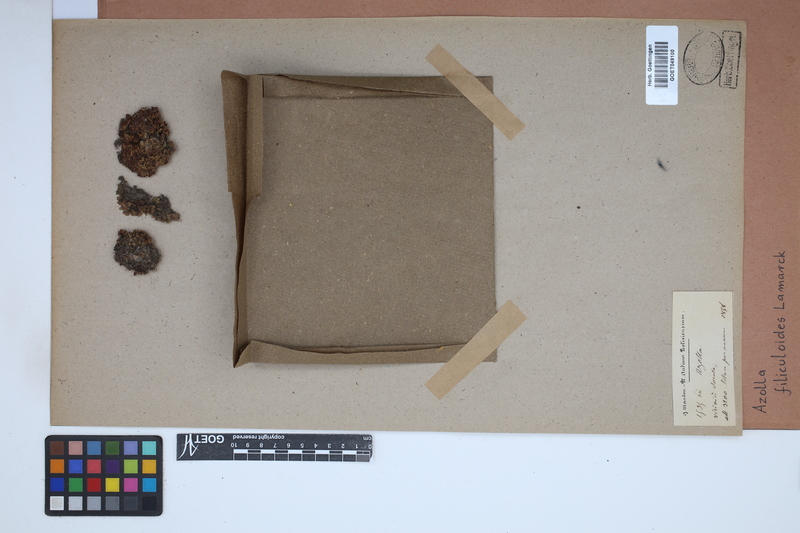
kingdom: Plantae
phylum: Tracheophyta
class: Polypodiopsida
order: Salviniales
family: Salviniaceae
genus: Azolla
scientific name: Azolla filiculoides
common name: Water fern
